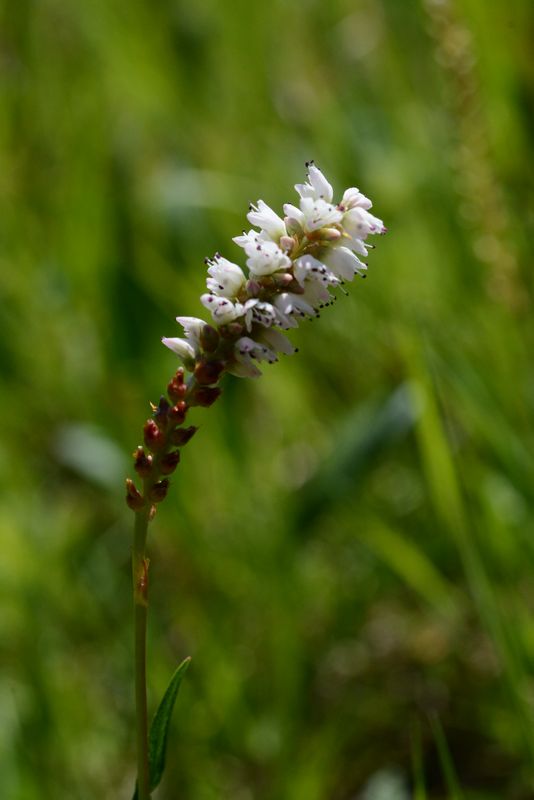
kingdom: Plantae
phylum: Tracheophyta
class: Magnoliopsida
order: Caryophyllales
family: Polygonaceae
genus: Bistorta
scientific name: Bistorta vivipara
